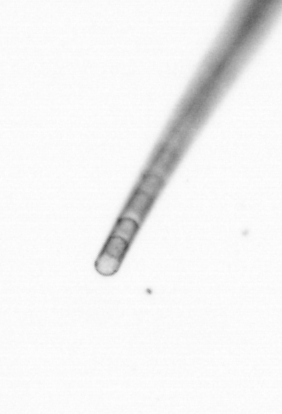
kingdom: Chromista
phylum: Ochrophyta
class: Bacillariophyceae
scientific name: Bacillariophyceae
